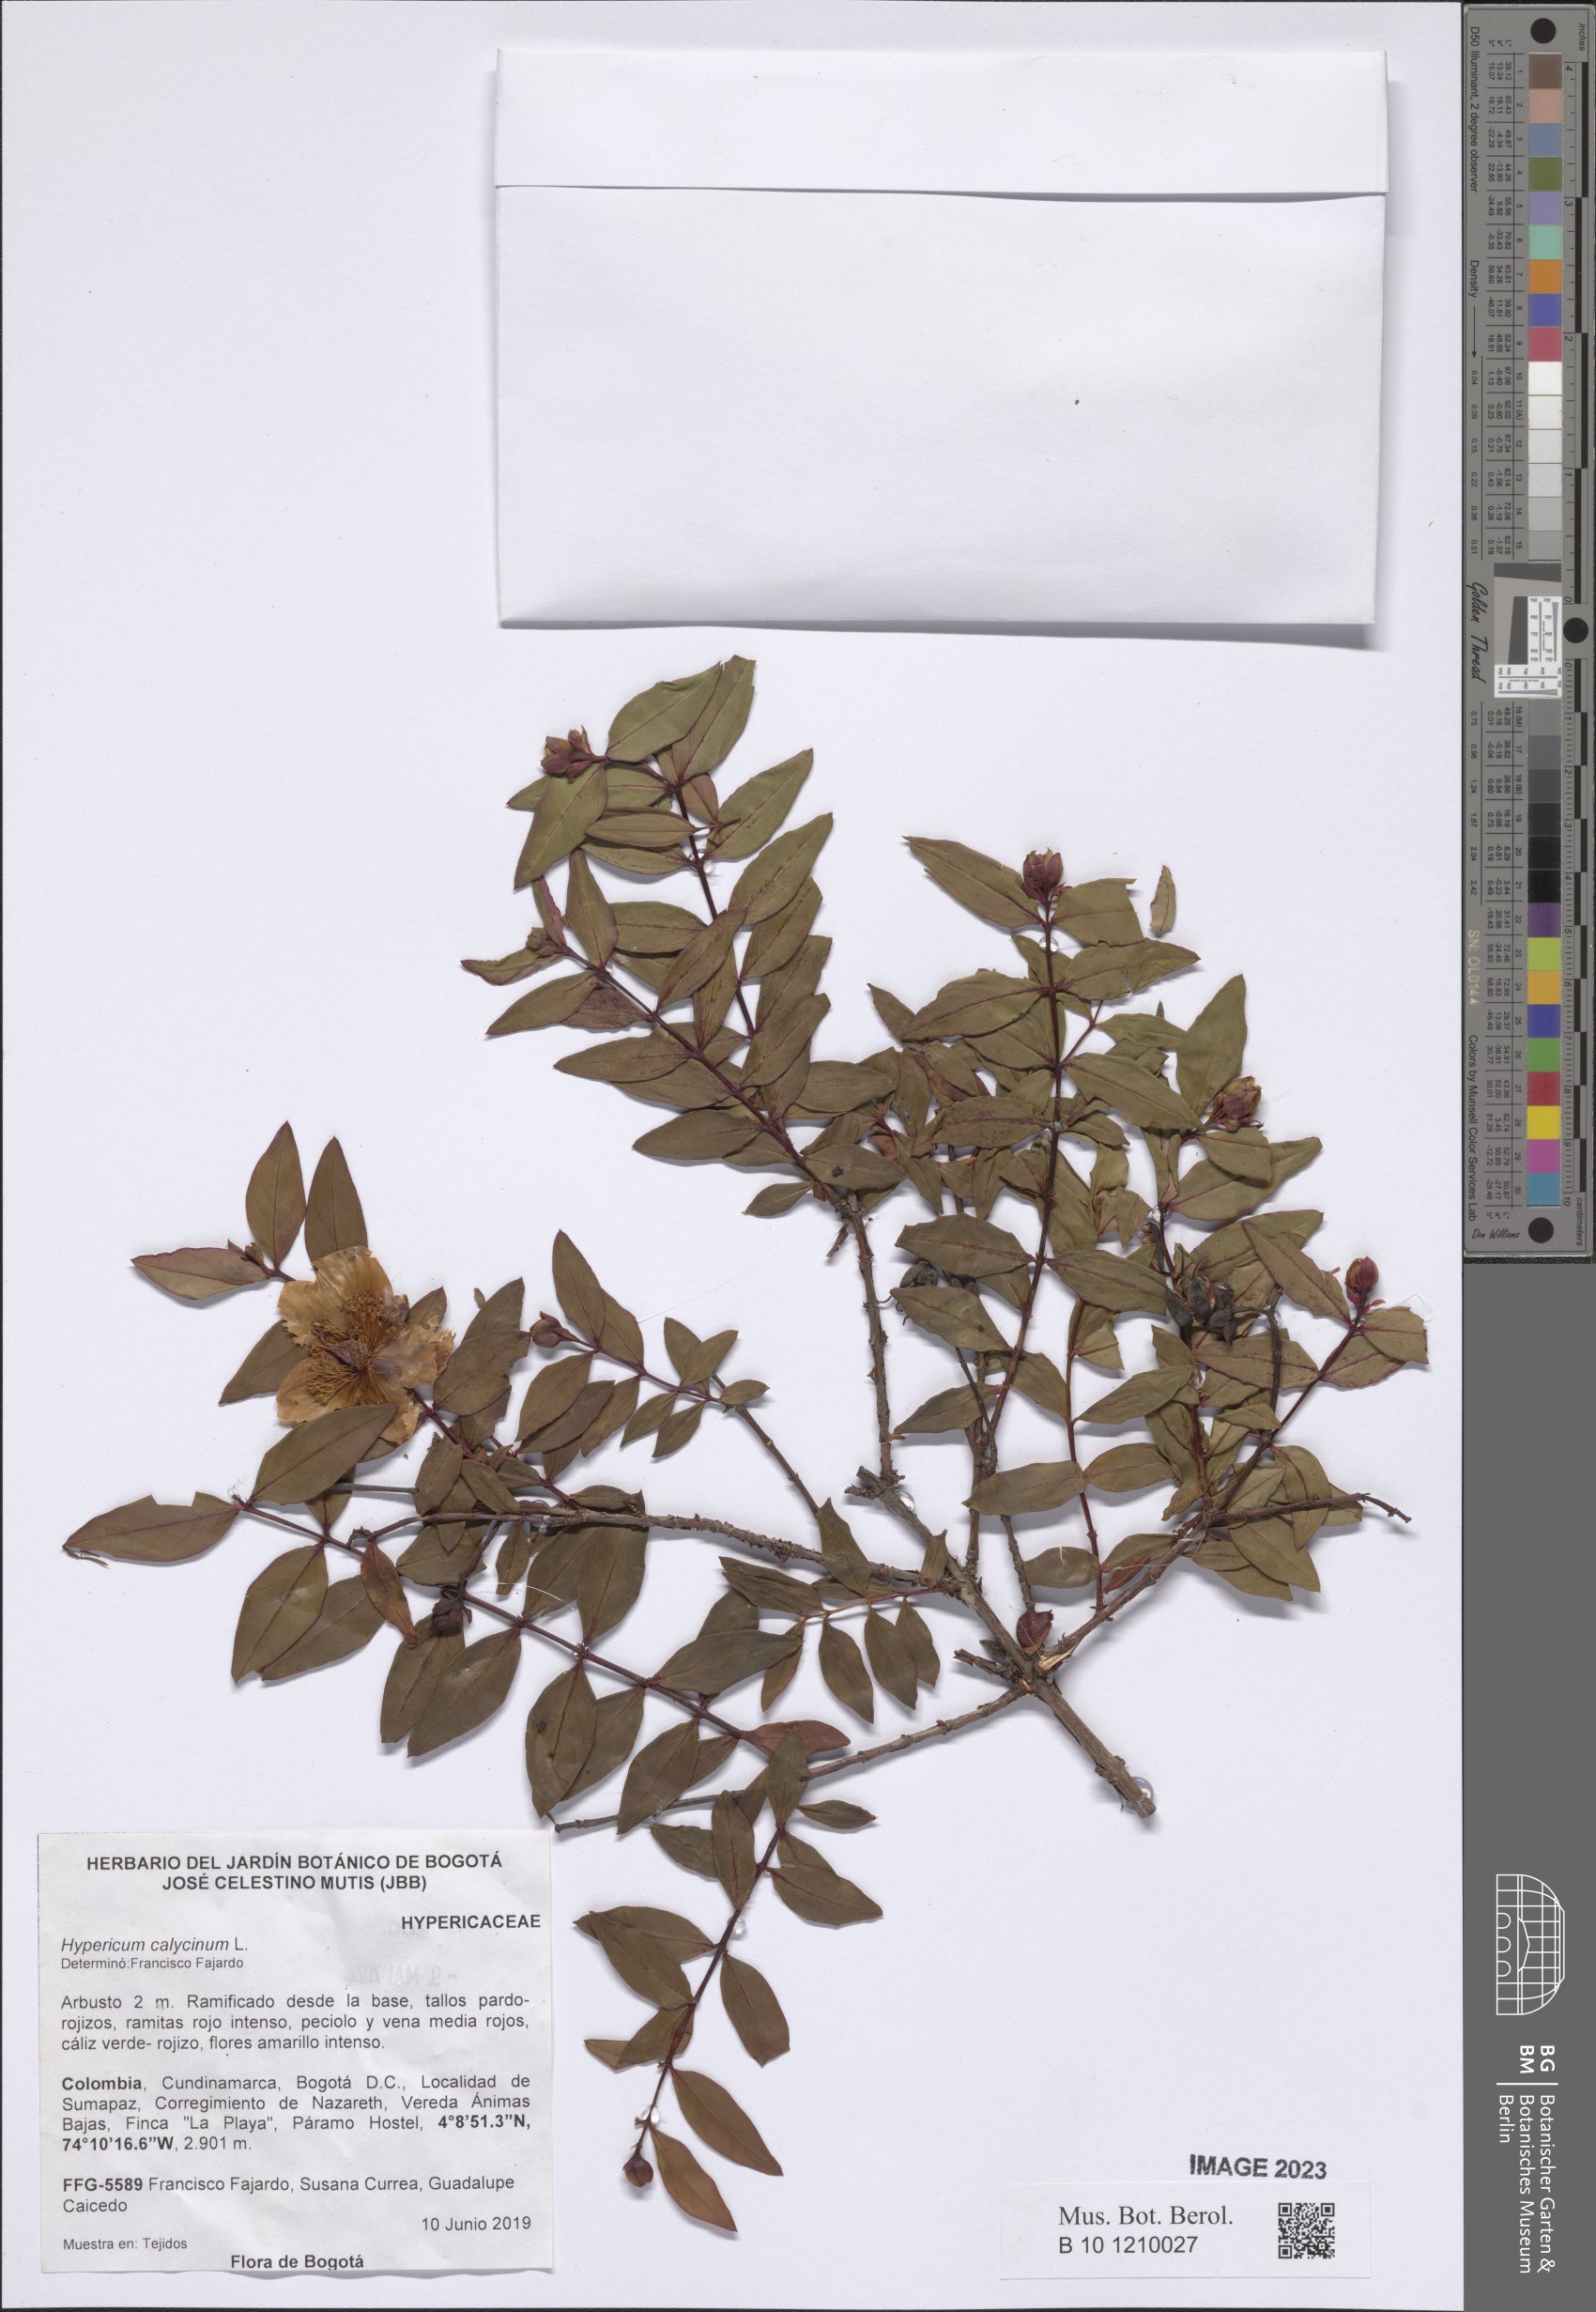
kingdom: Plantae
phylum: Tracheophyta
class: Magnoliopsida
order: Malpighiales
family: Hypericaceae
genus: Hypericum
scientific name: Hypericum calycinum
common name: Rose-of-sharon
